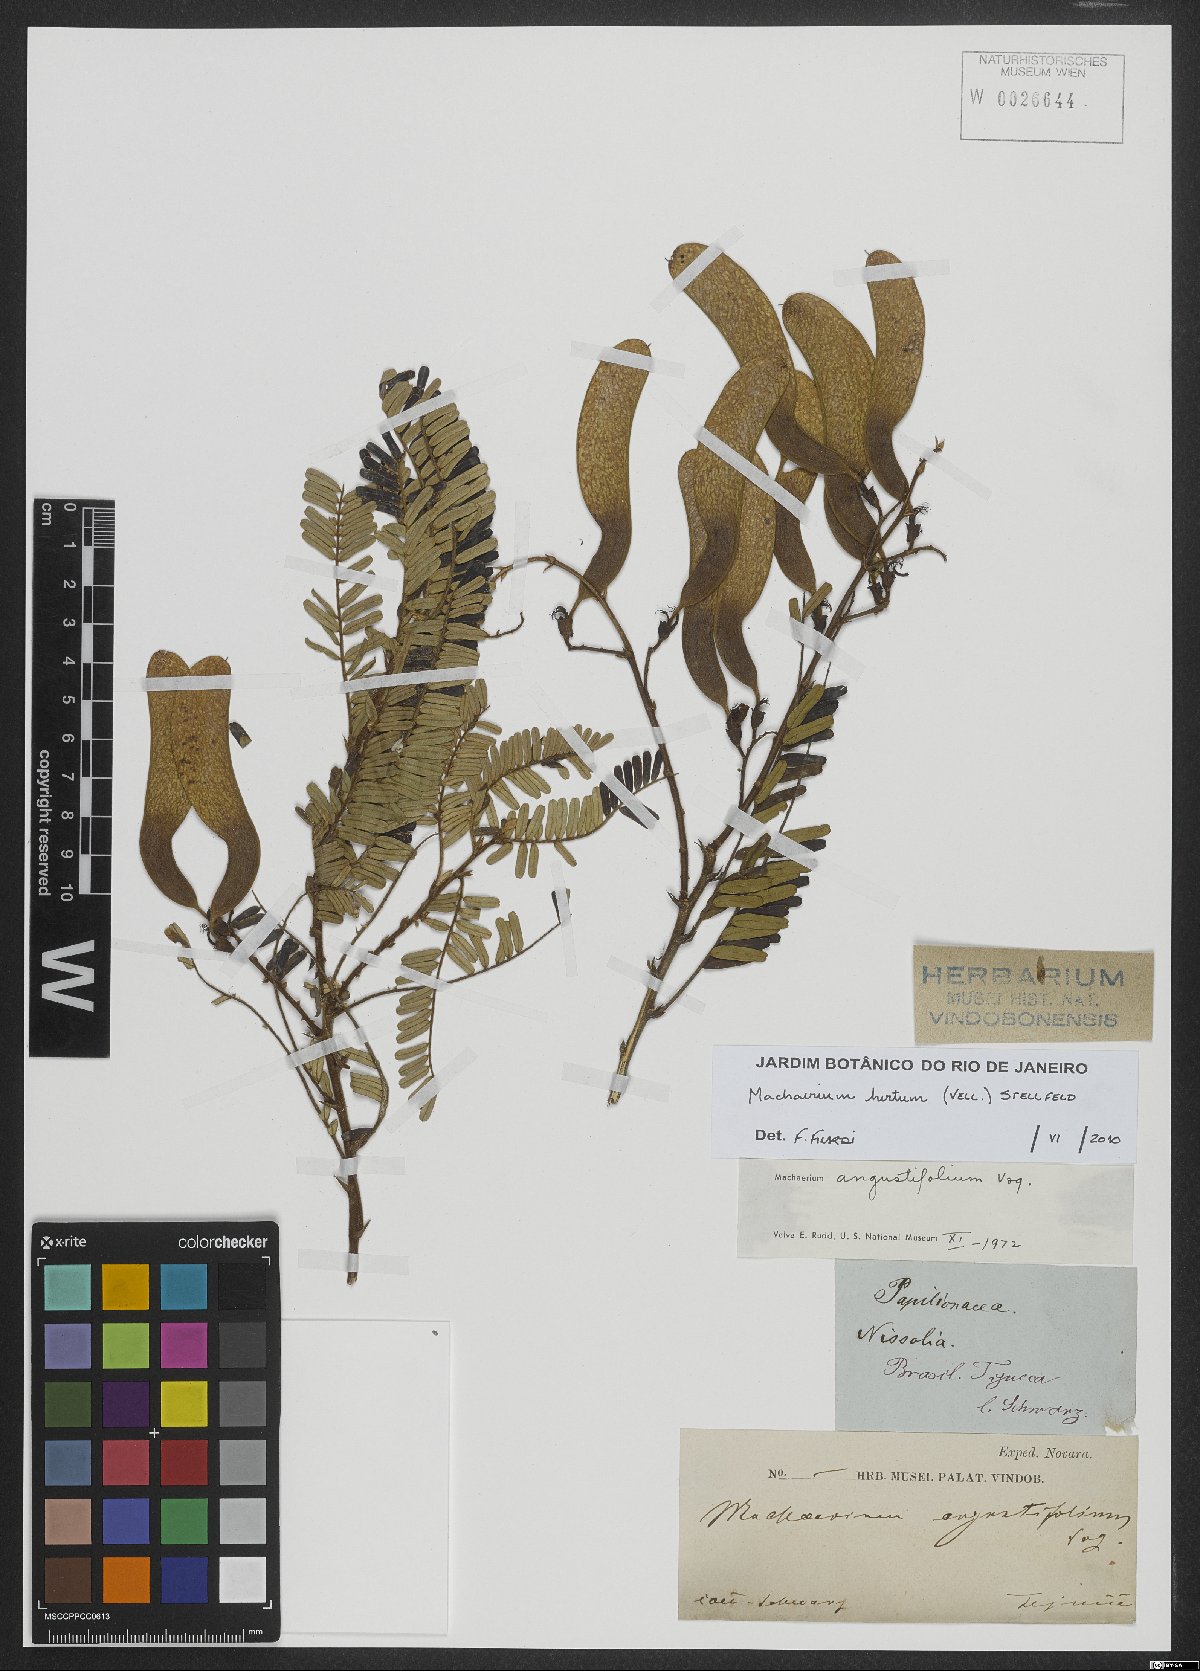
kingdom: Plantae
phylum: Tracheophyta
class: Magnoliopsida
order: Fabales
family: Fabaceae
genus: Machaerium
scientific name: Machaerium hirtum
